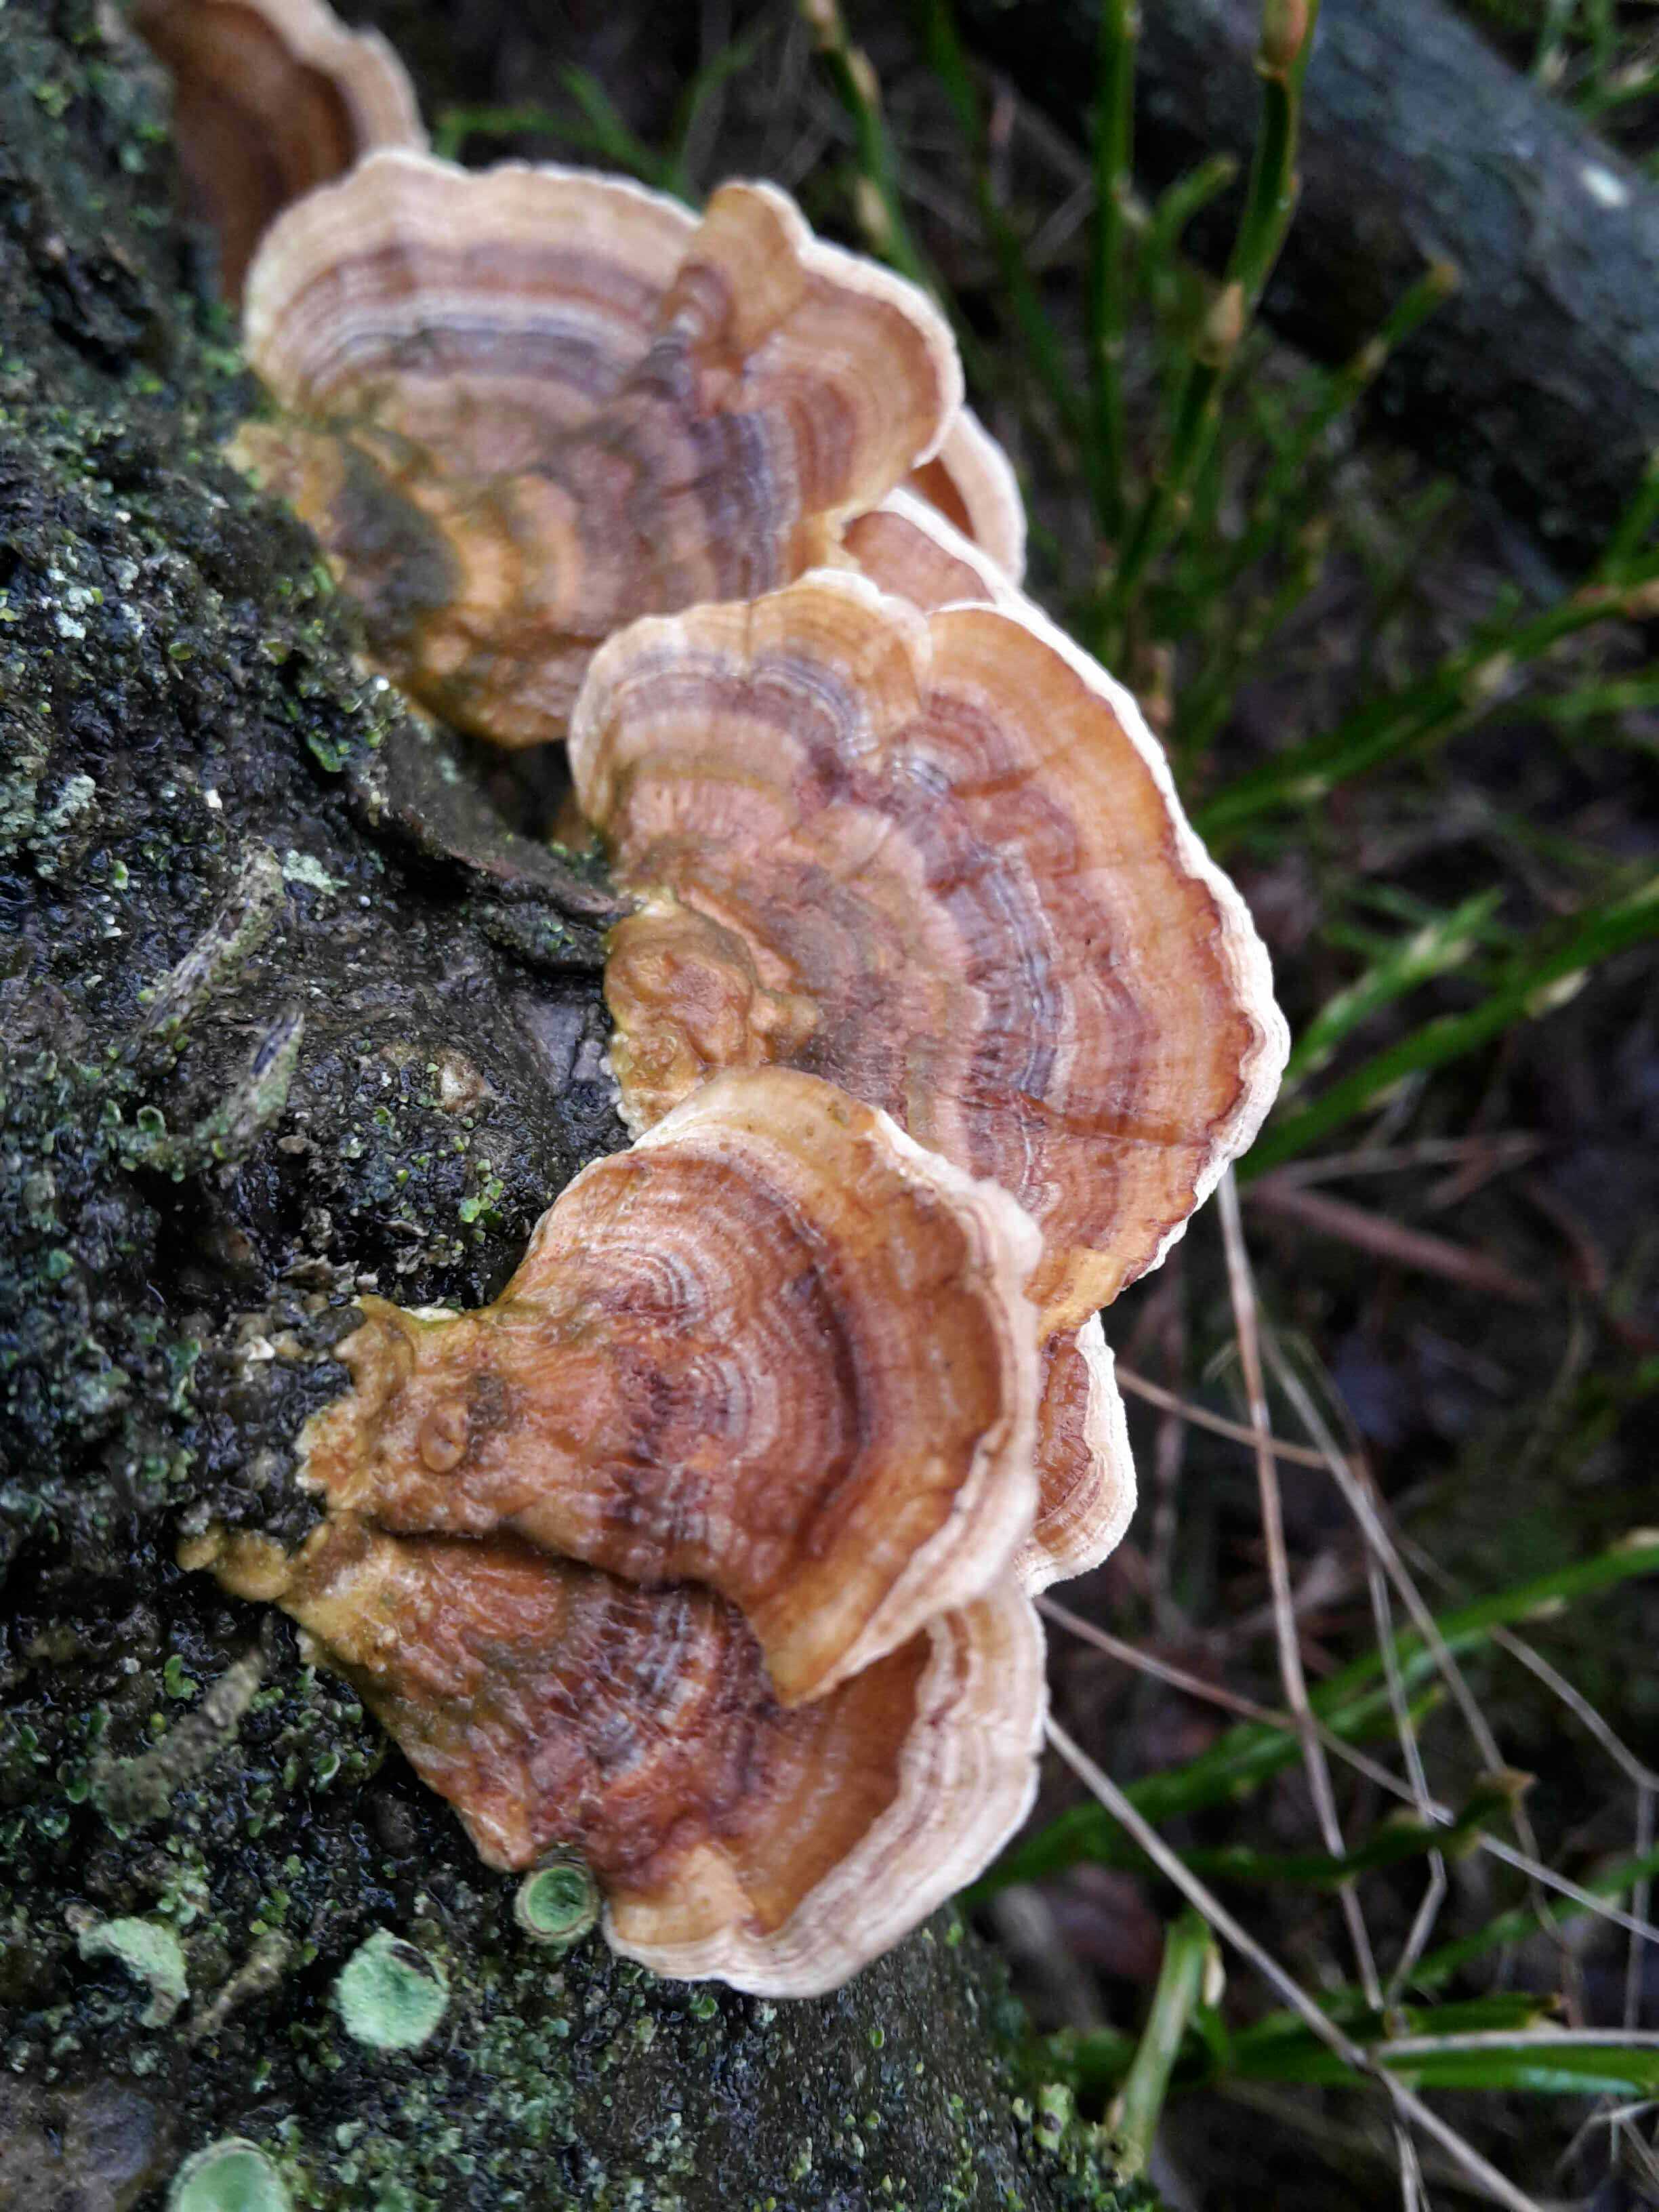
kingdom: Fungi
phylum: Basidiomycota
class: Agaricomycetes
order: Polyporales
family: Polyporaceae
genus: Trametes
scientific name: Trametes versicolor
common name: broget læderporesvamp
